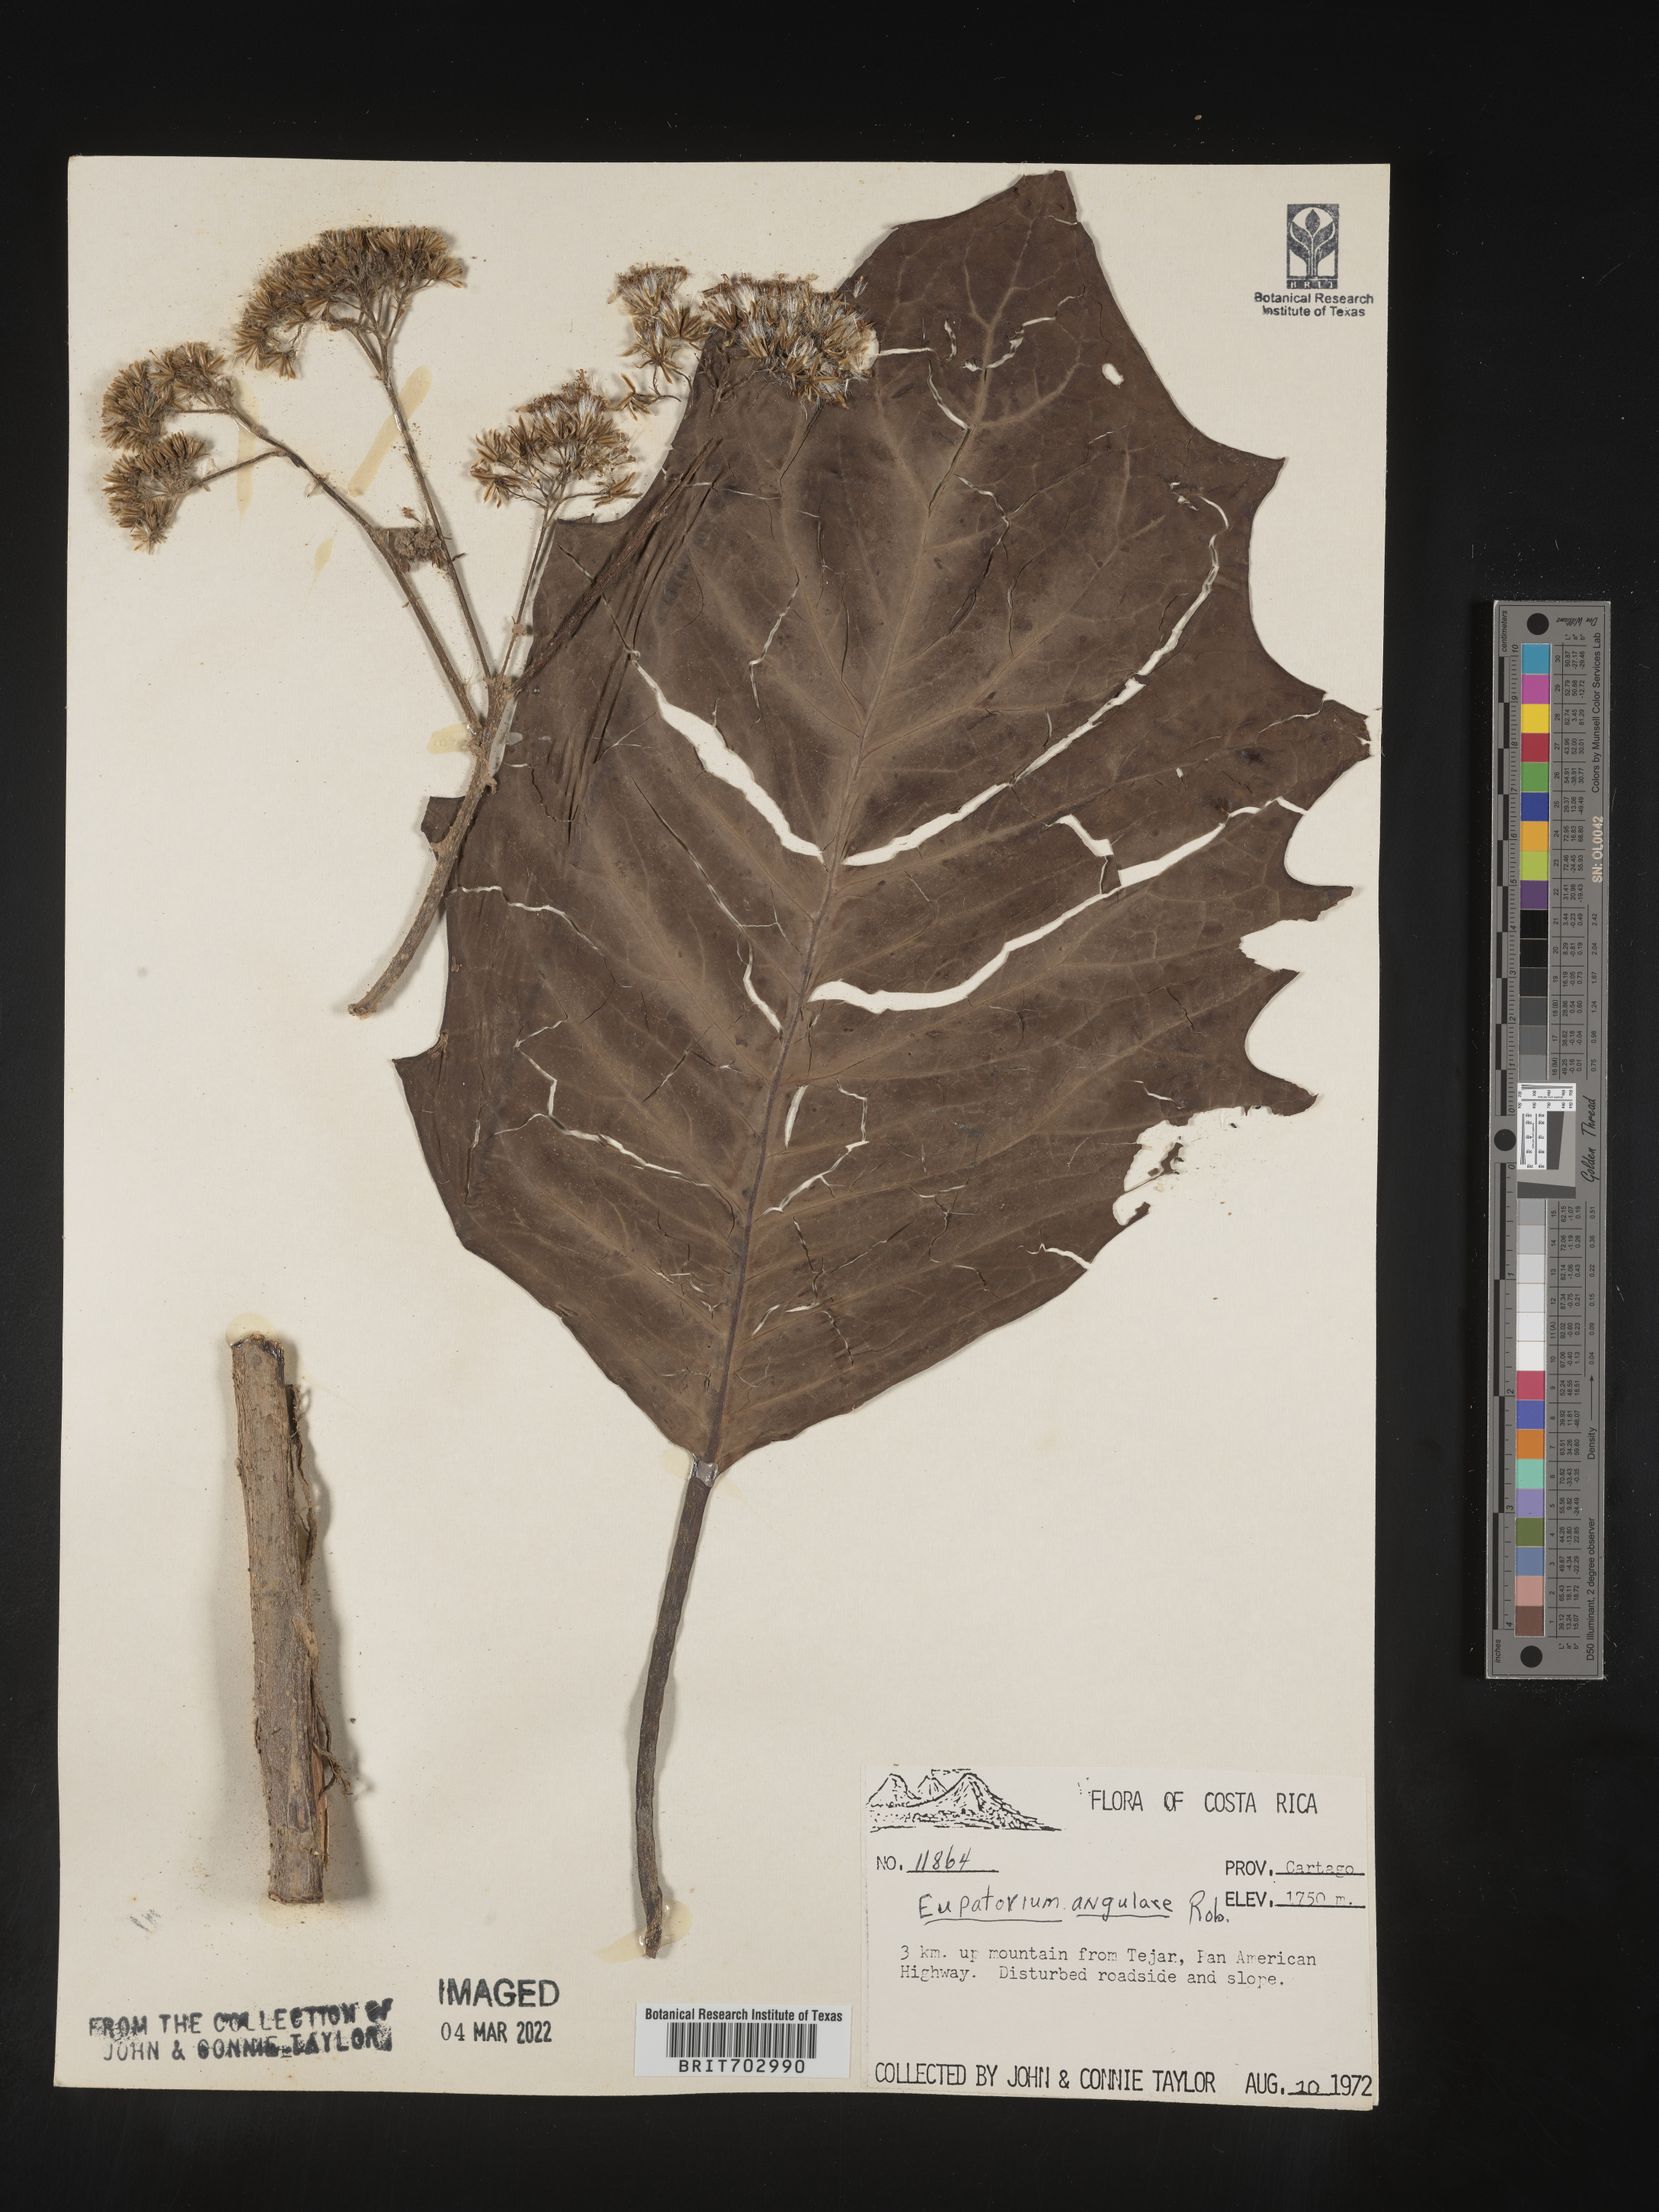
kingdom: Plantae
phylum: Tracheophyta
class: Magnoliopsida
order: Asterales
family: Asteraceae
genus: Eupatorium
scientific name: Eupatorium
